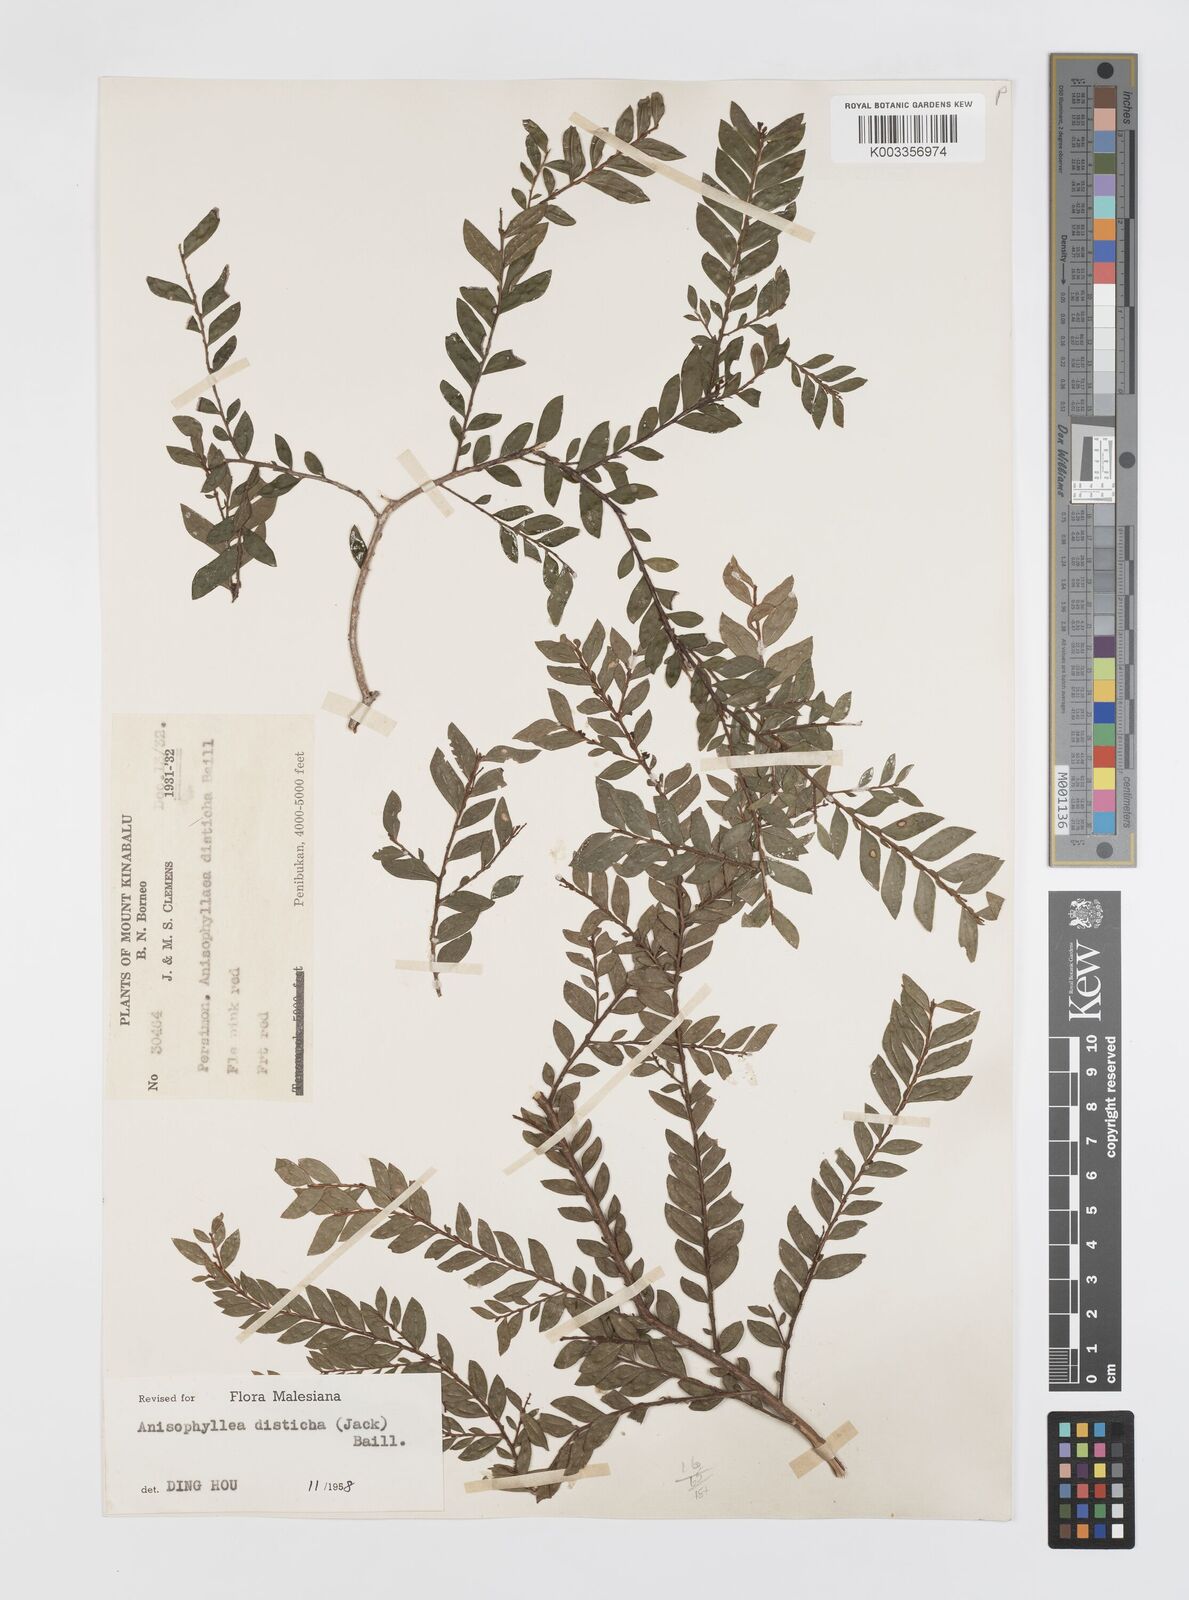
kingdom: Plantae
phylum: Tracheophyta
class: Magnoliopsida
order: Cucurbitales
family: Anisophylleaceae
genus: Anisophyllea
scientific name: Anisophyllea disticha
